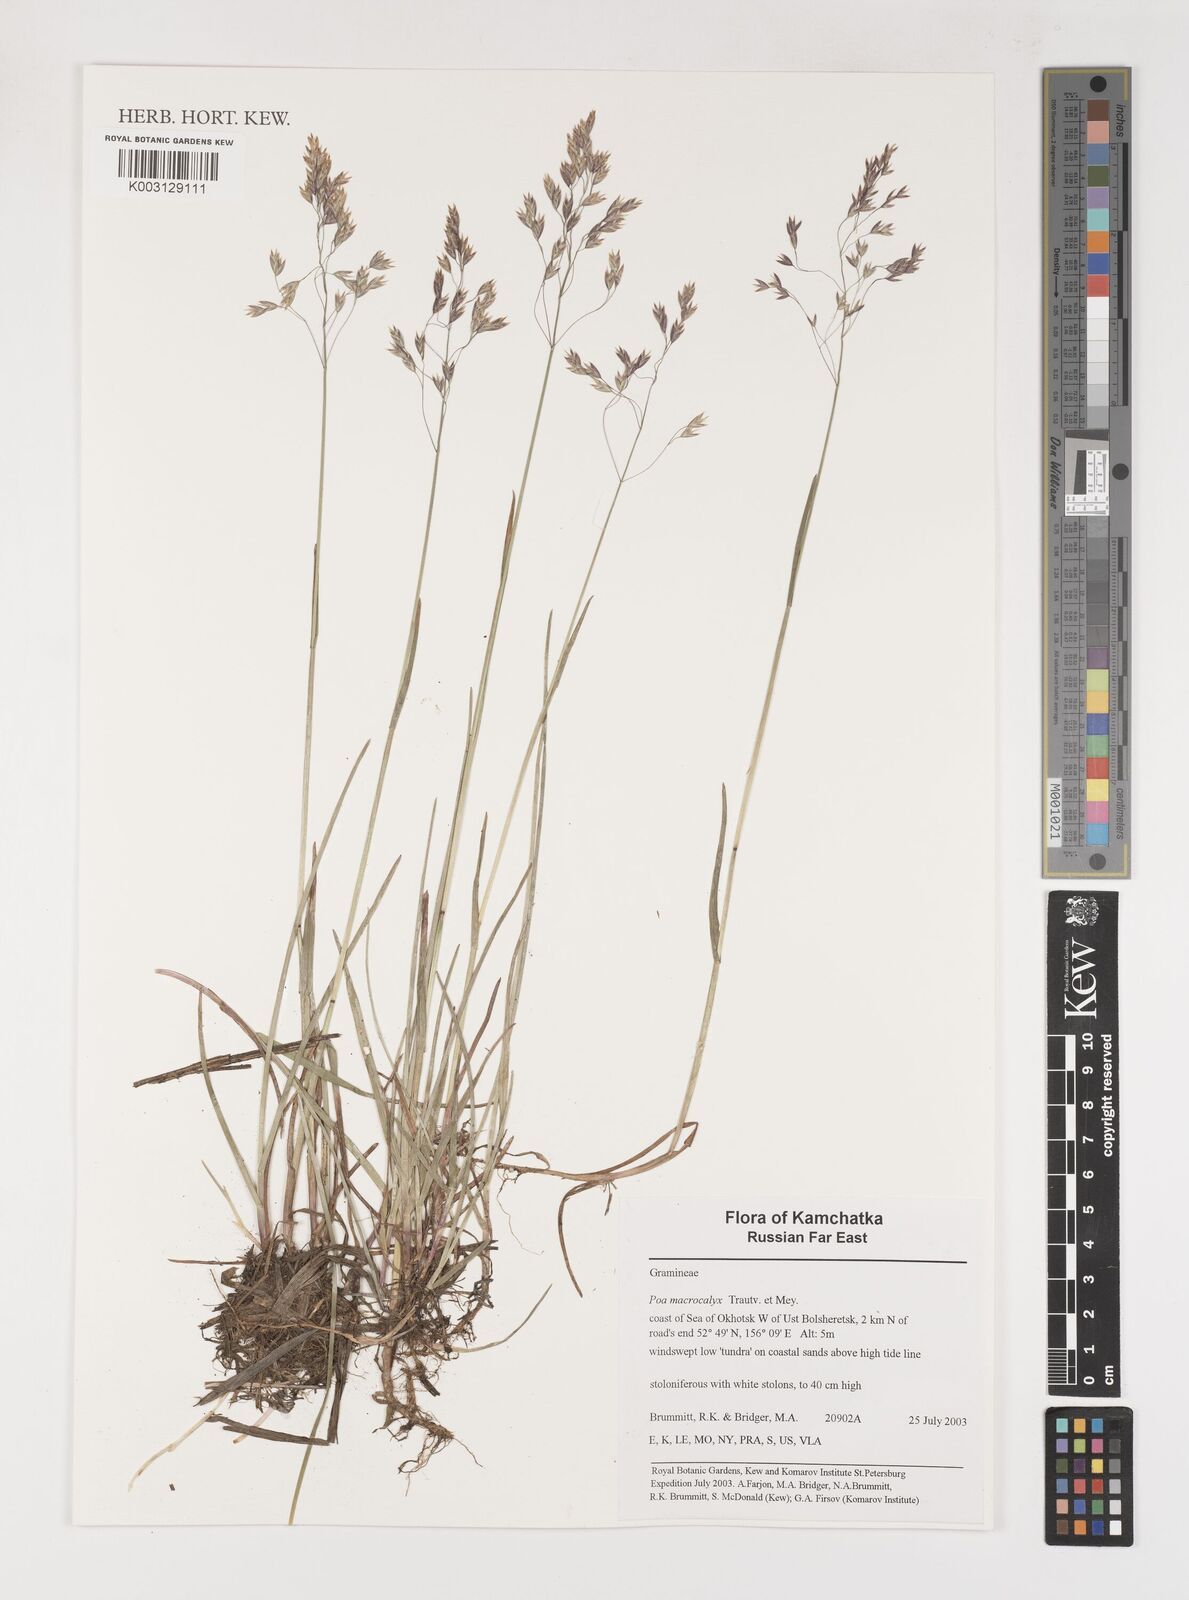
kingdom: Plantae
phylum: Tracheophyta
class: Liliopsida
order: Poales
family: Poaceae
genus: Poa
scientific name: Poa macrocalyx
